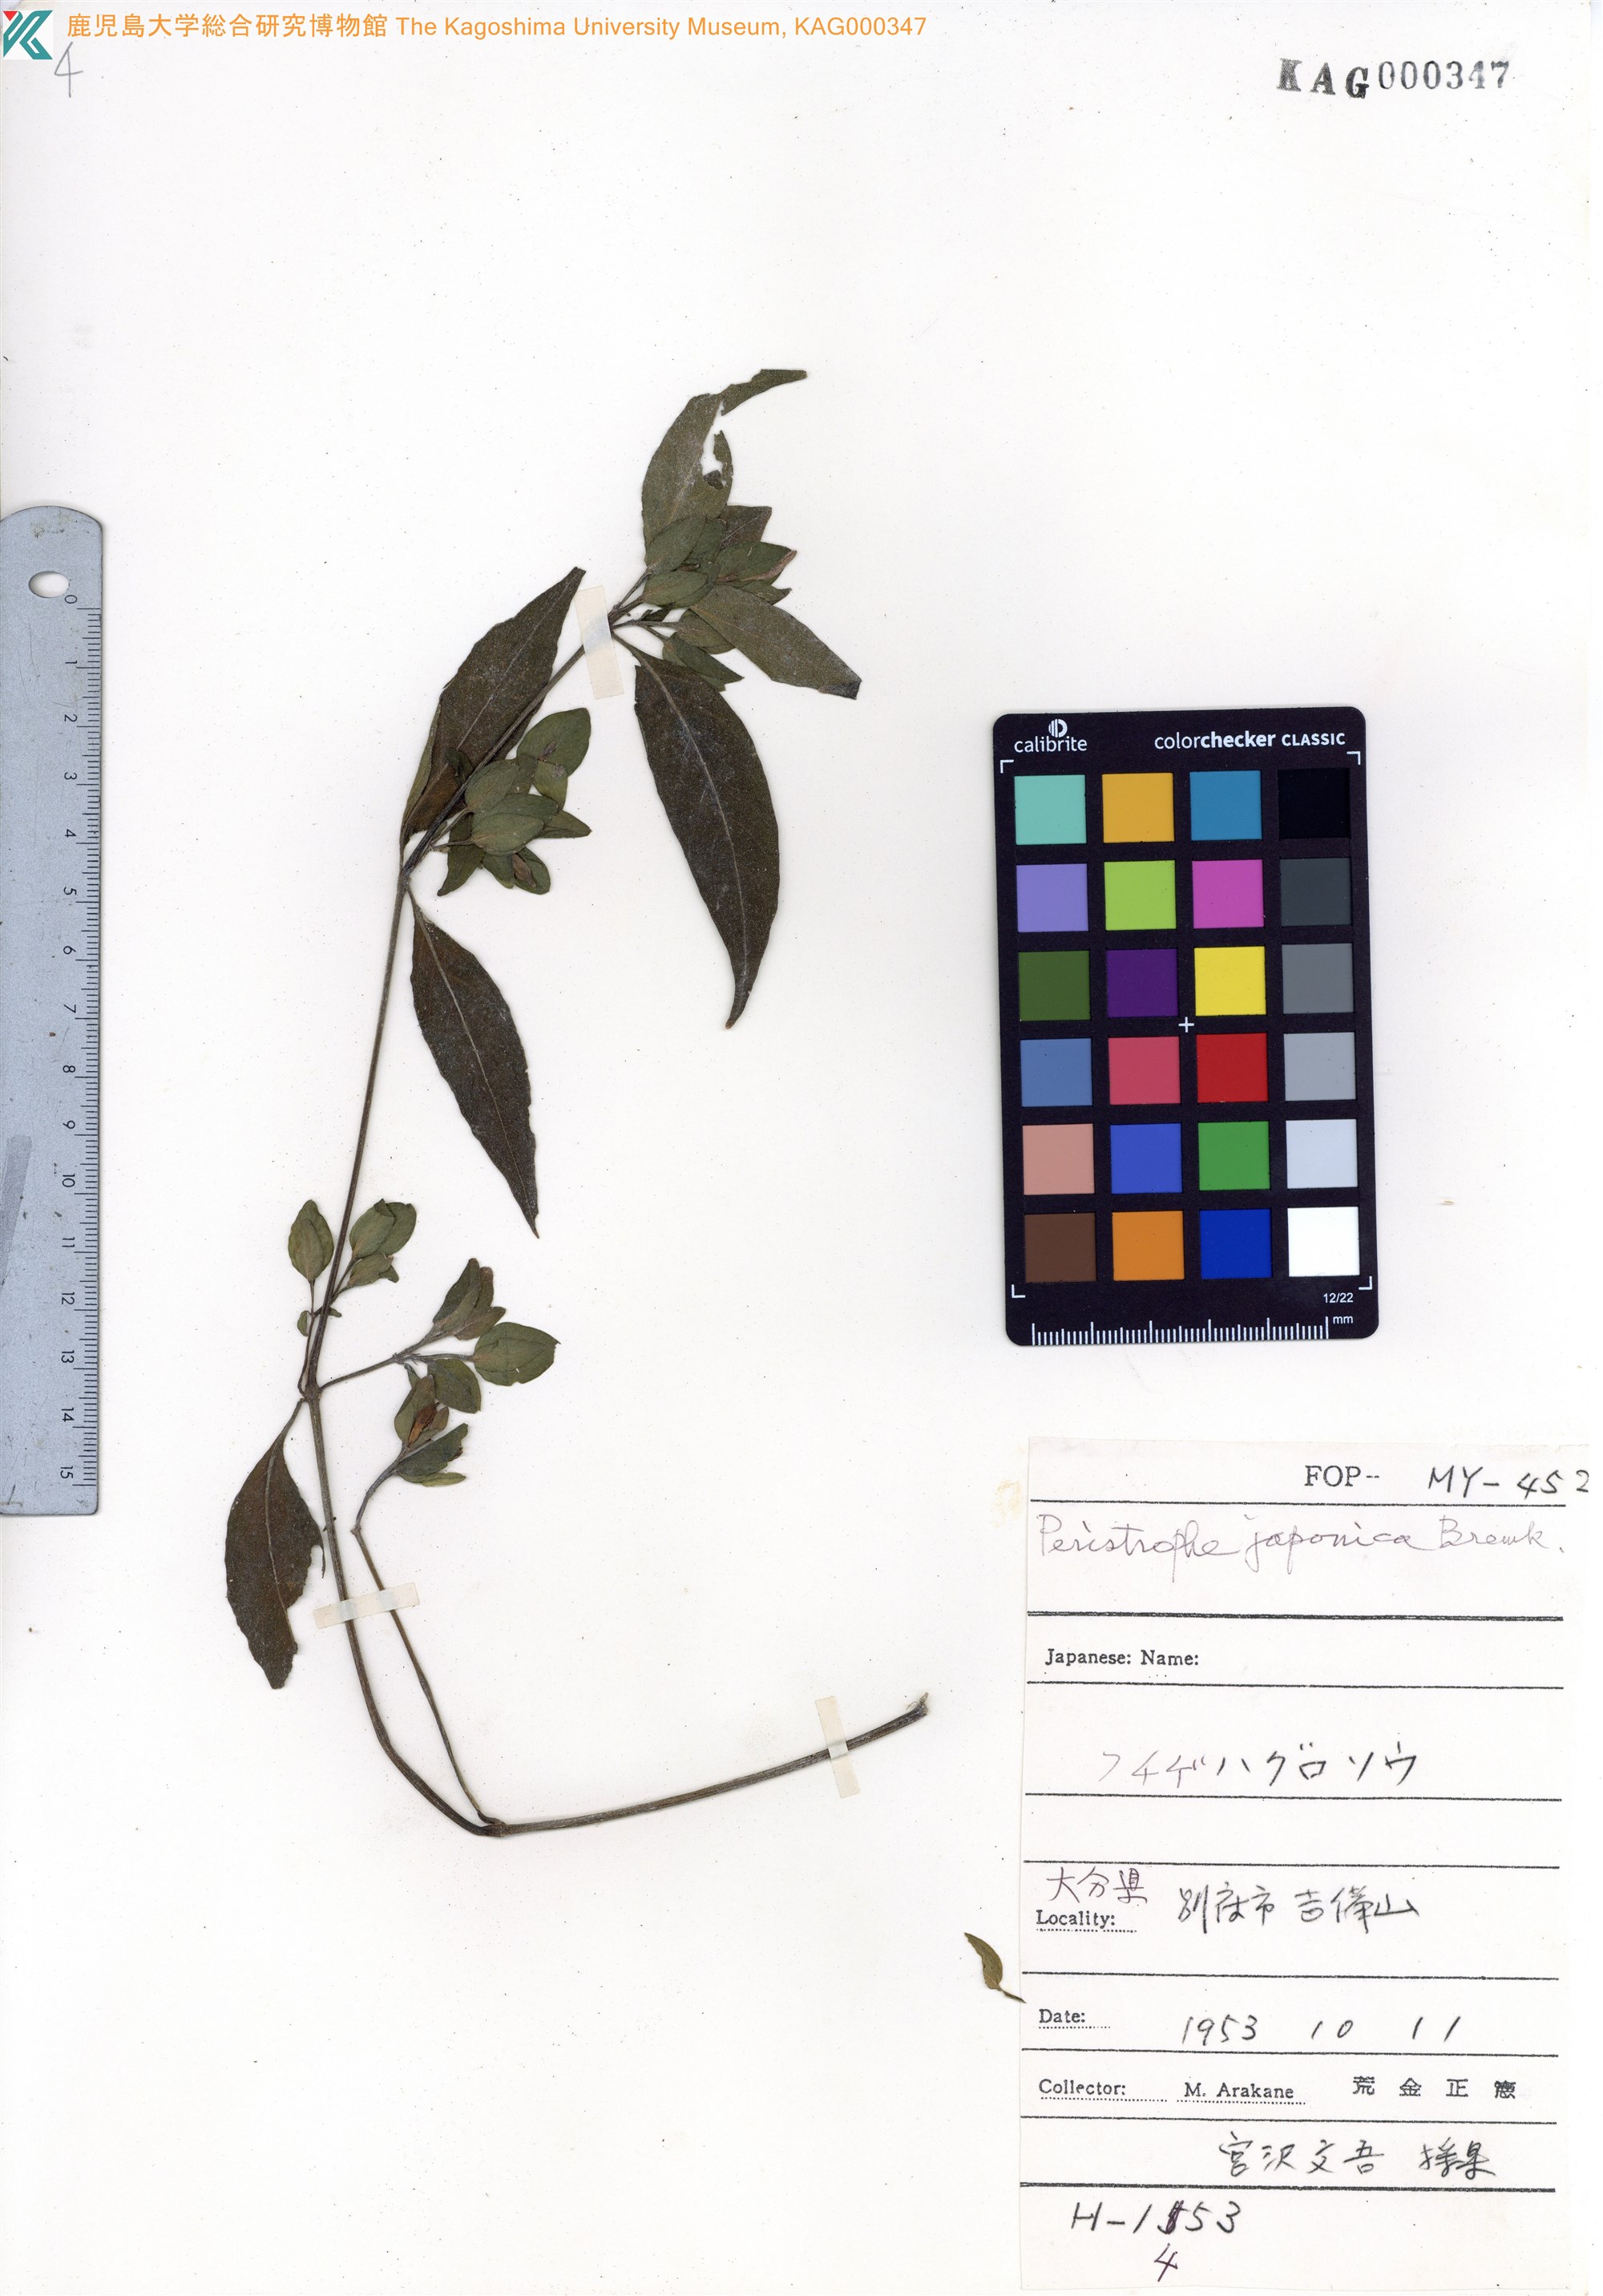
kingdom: Plantae
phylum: Tracheophyta
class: Magnoliopsida
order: Lamiales
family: Acanthaceae
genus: Dicliptera
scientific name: Dicliptera japonica
